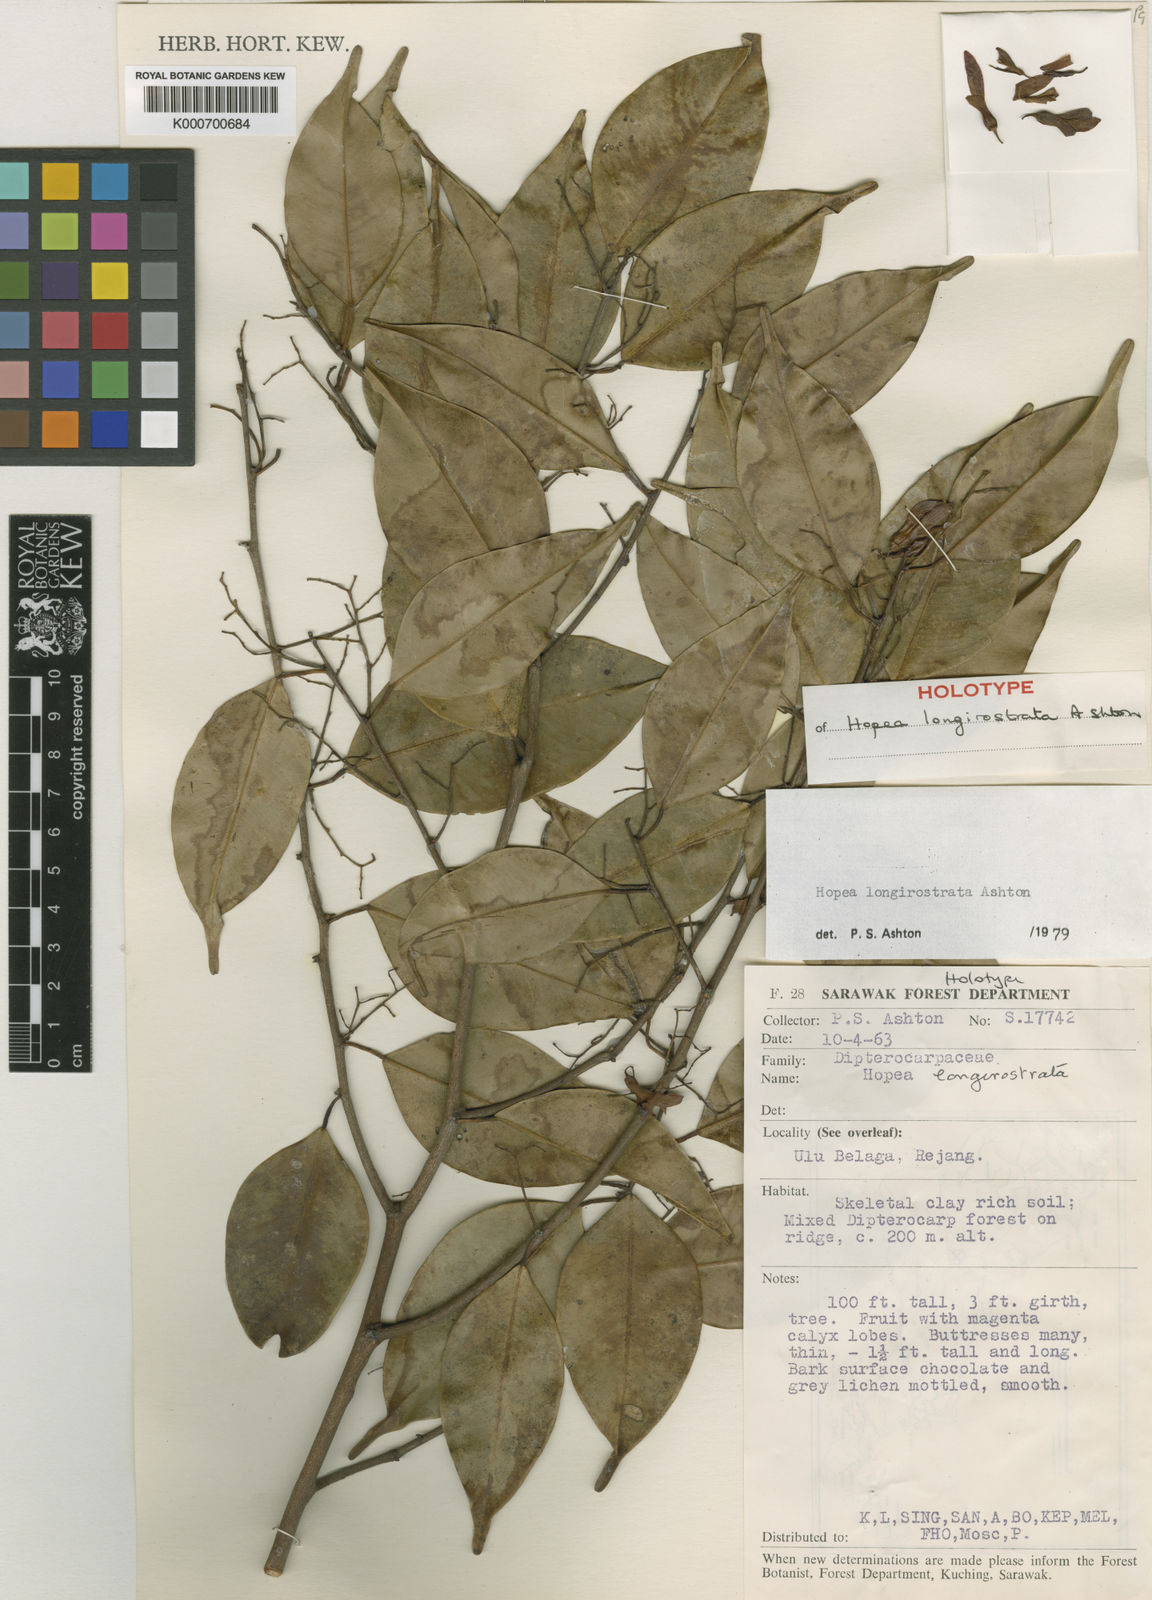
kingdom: Plantae
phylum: Tracheophyta
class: Magnoliopsida
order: Malvales
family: Dipterocarpaceae
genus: Hopea
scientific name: Hopea longirostrata
